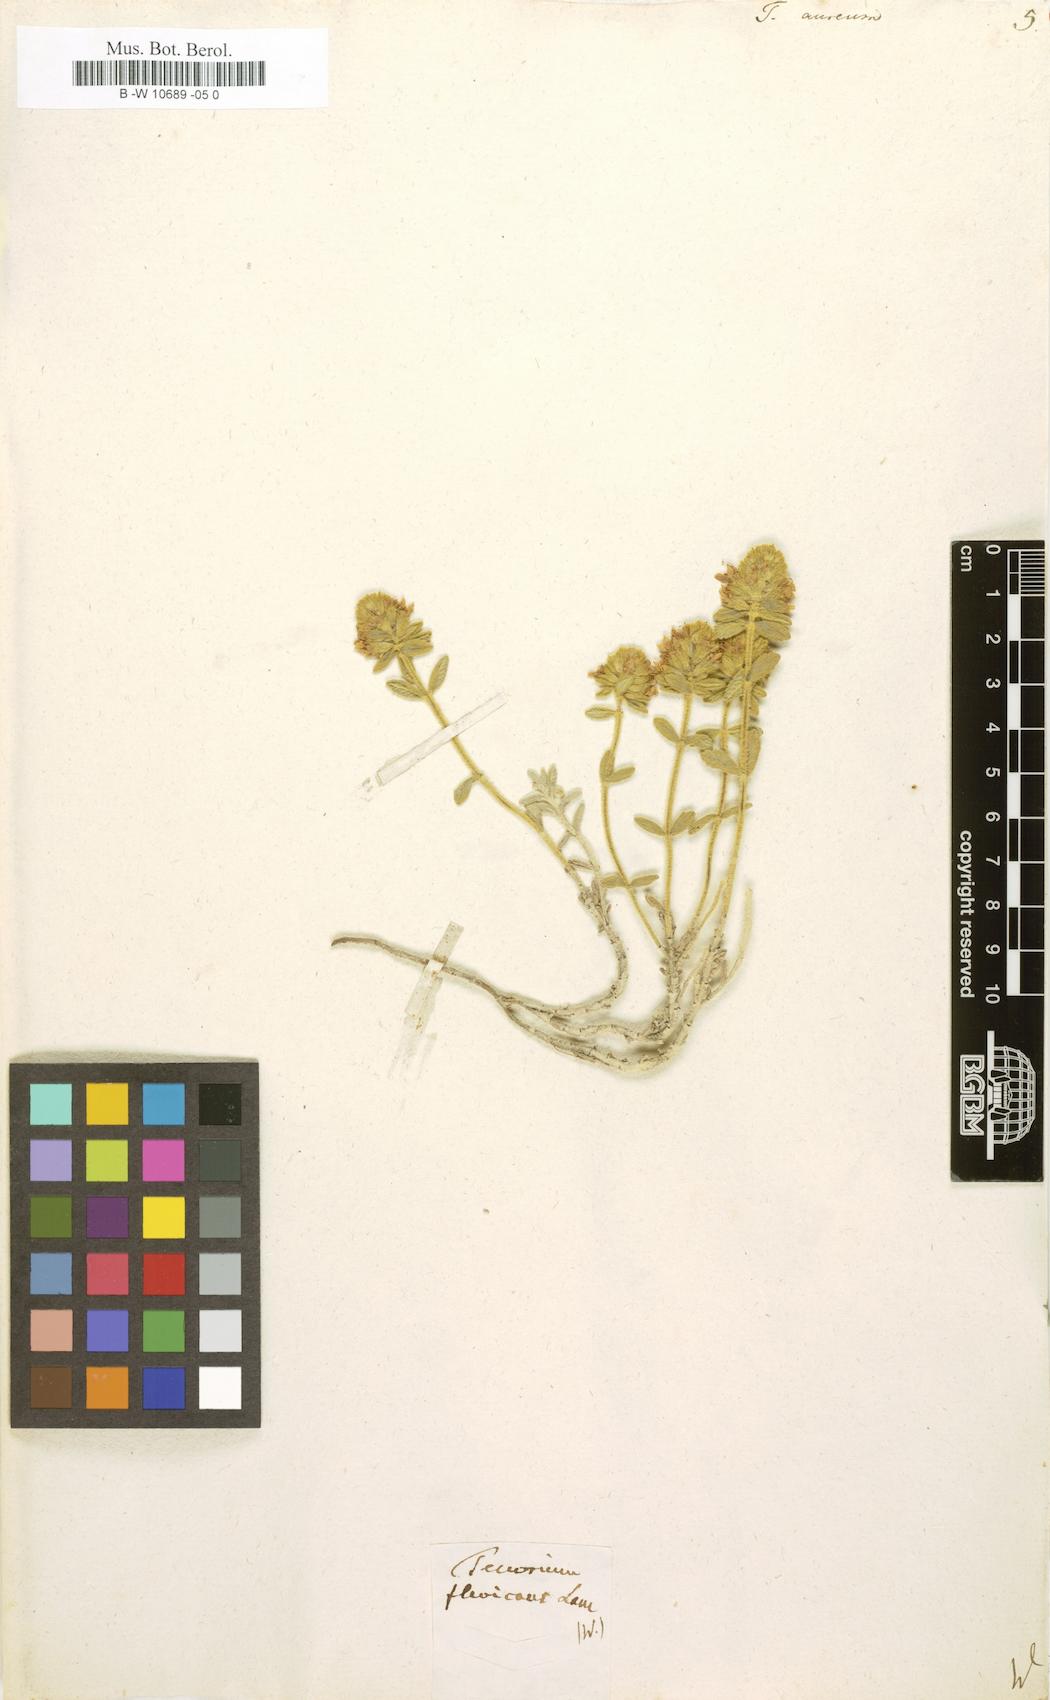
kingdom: Plantae
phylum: Tracheophyta
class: Magnoliopsida
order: Lamiales
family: Lamiaceae
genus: Teucrium
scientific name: Teucrium aureum
